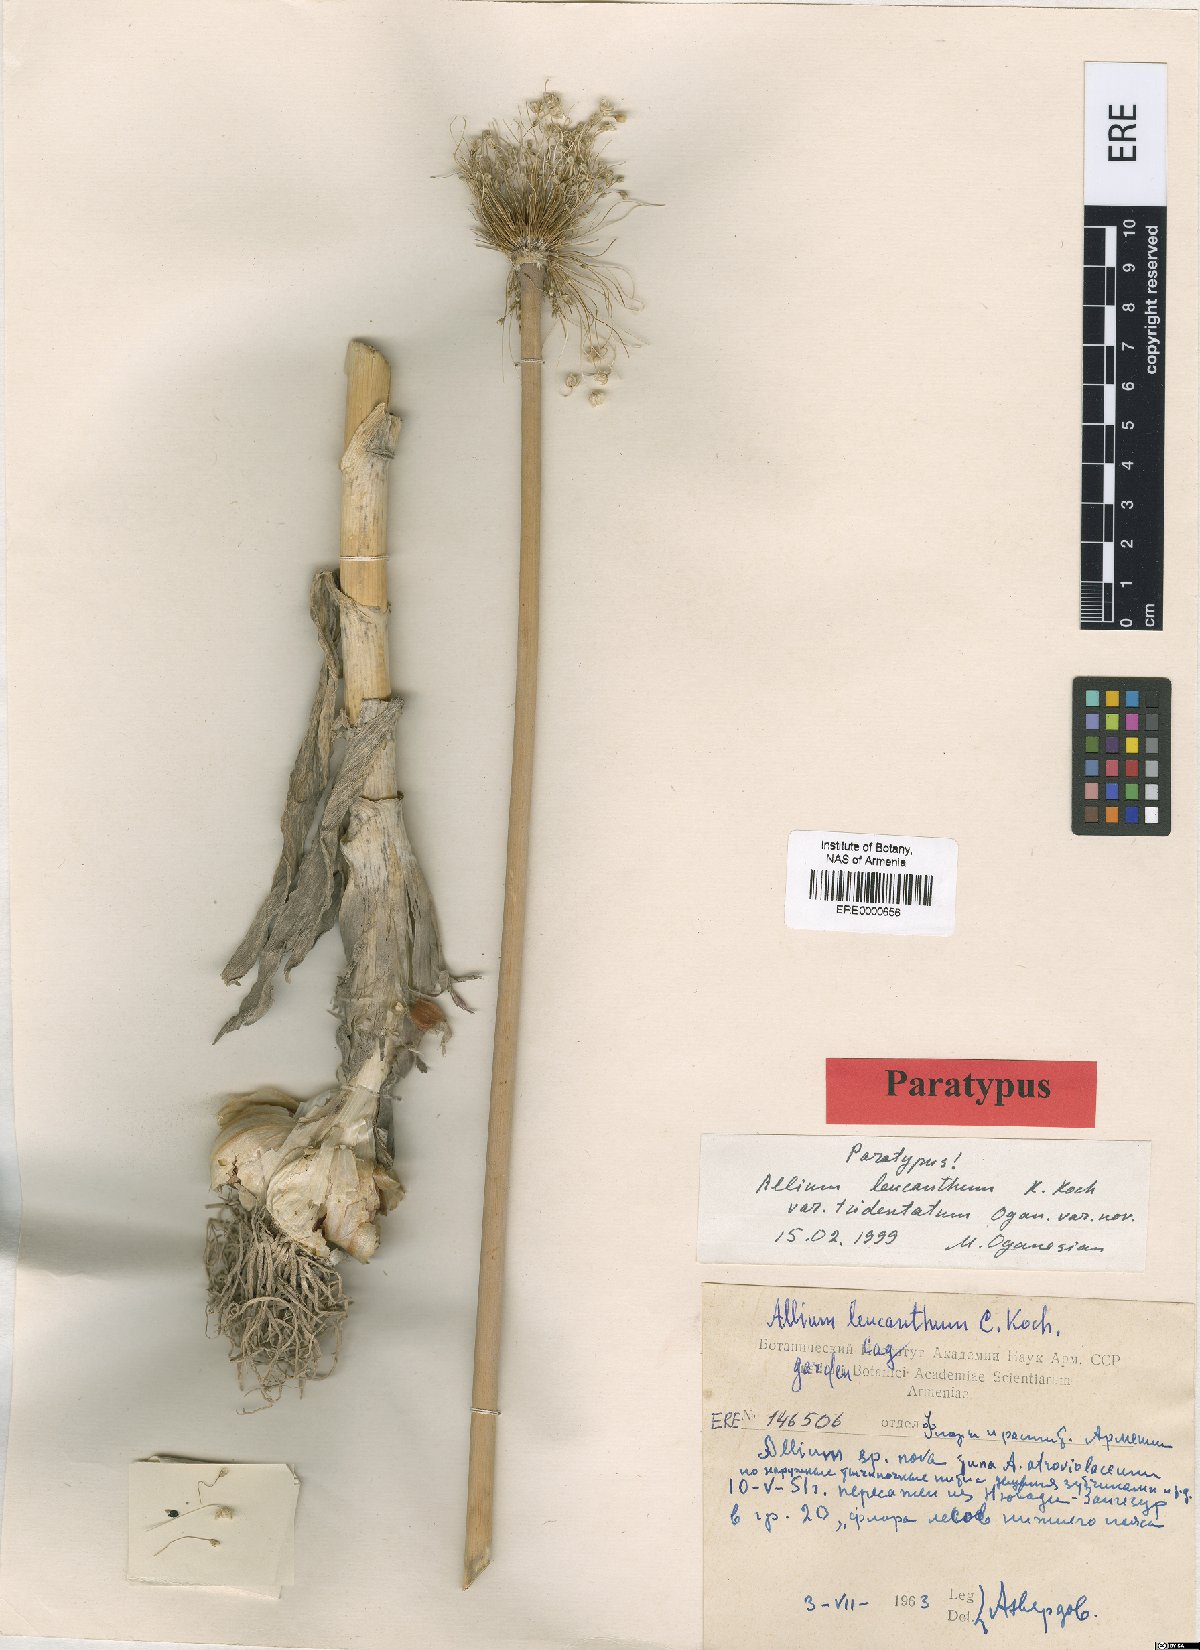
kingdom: Plantae
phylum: Tracheophyta
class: Liliopsida
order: Asparagales
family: Amaryllidaceae
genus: Allium
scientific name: Allium ampeloprasum
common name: Wild leek
